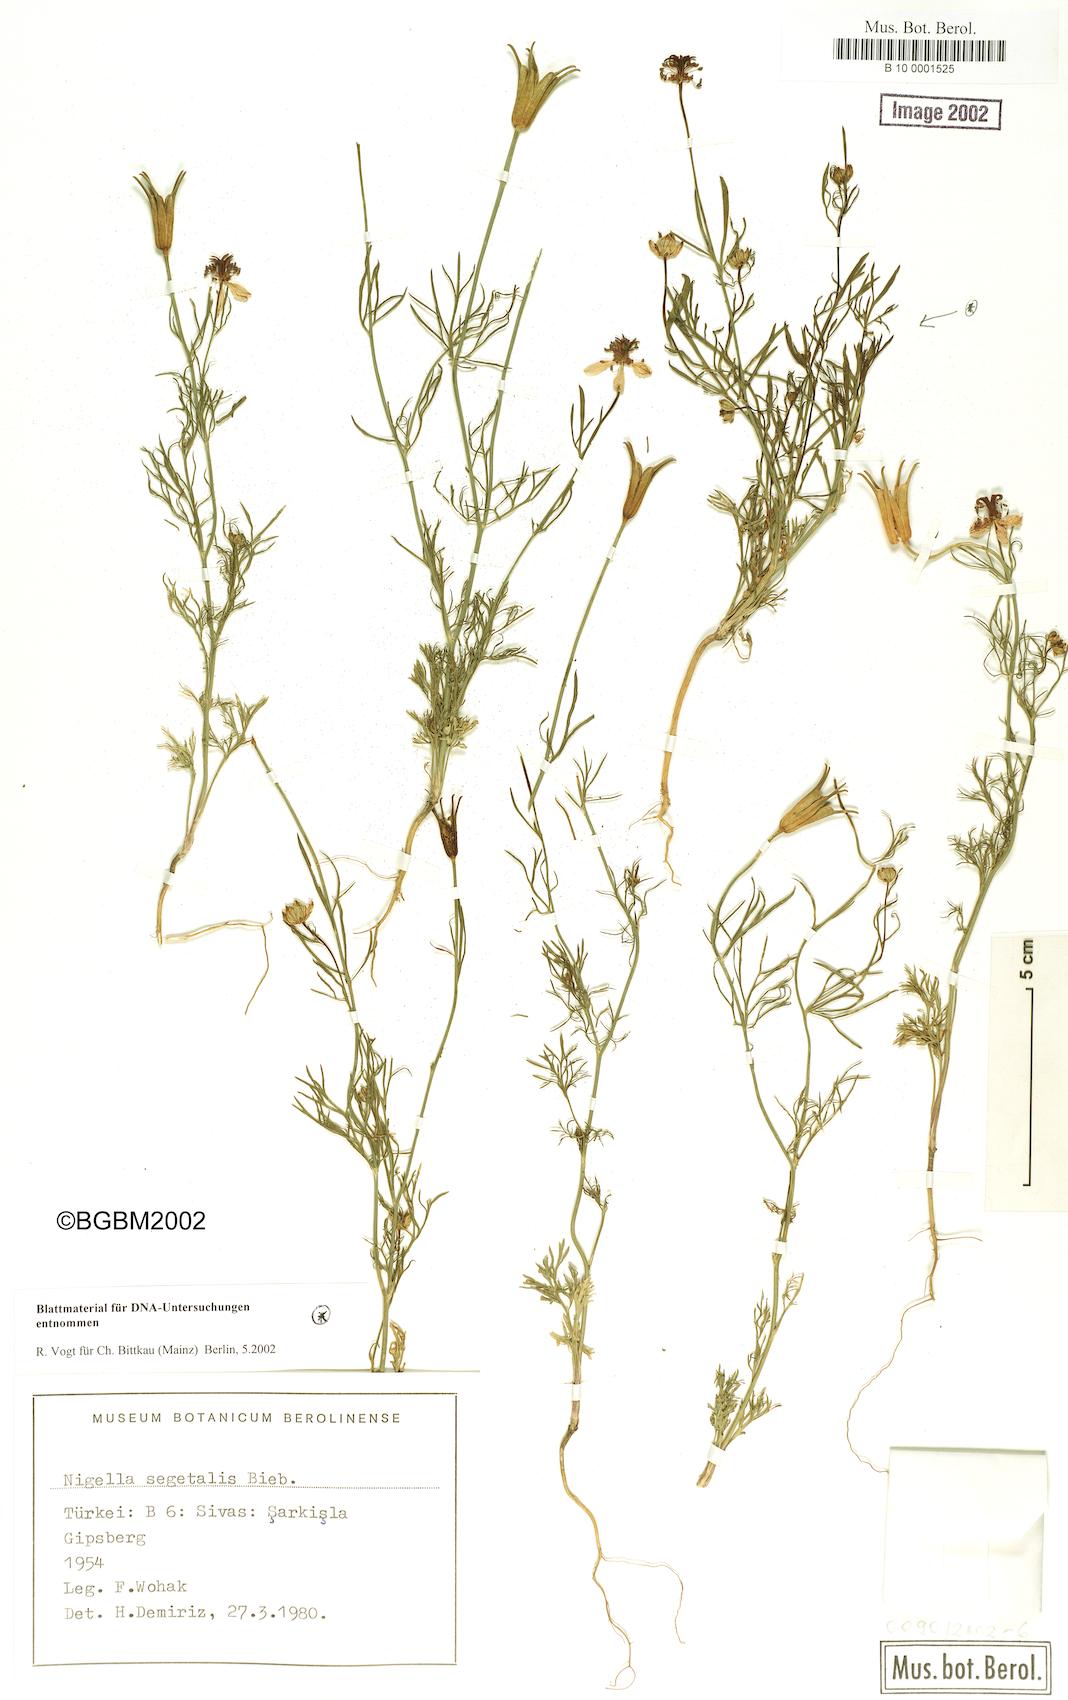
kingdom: Plantae
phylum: Tracheophyta
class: Magnoliopsida
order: Ranunculales
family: Ranunculaceae
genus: Nigella
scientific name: Nigella segetalis
